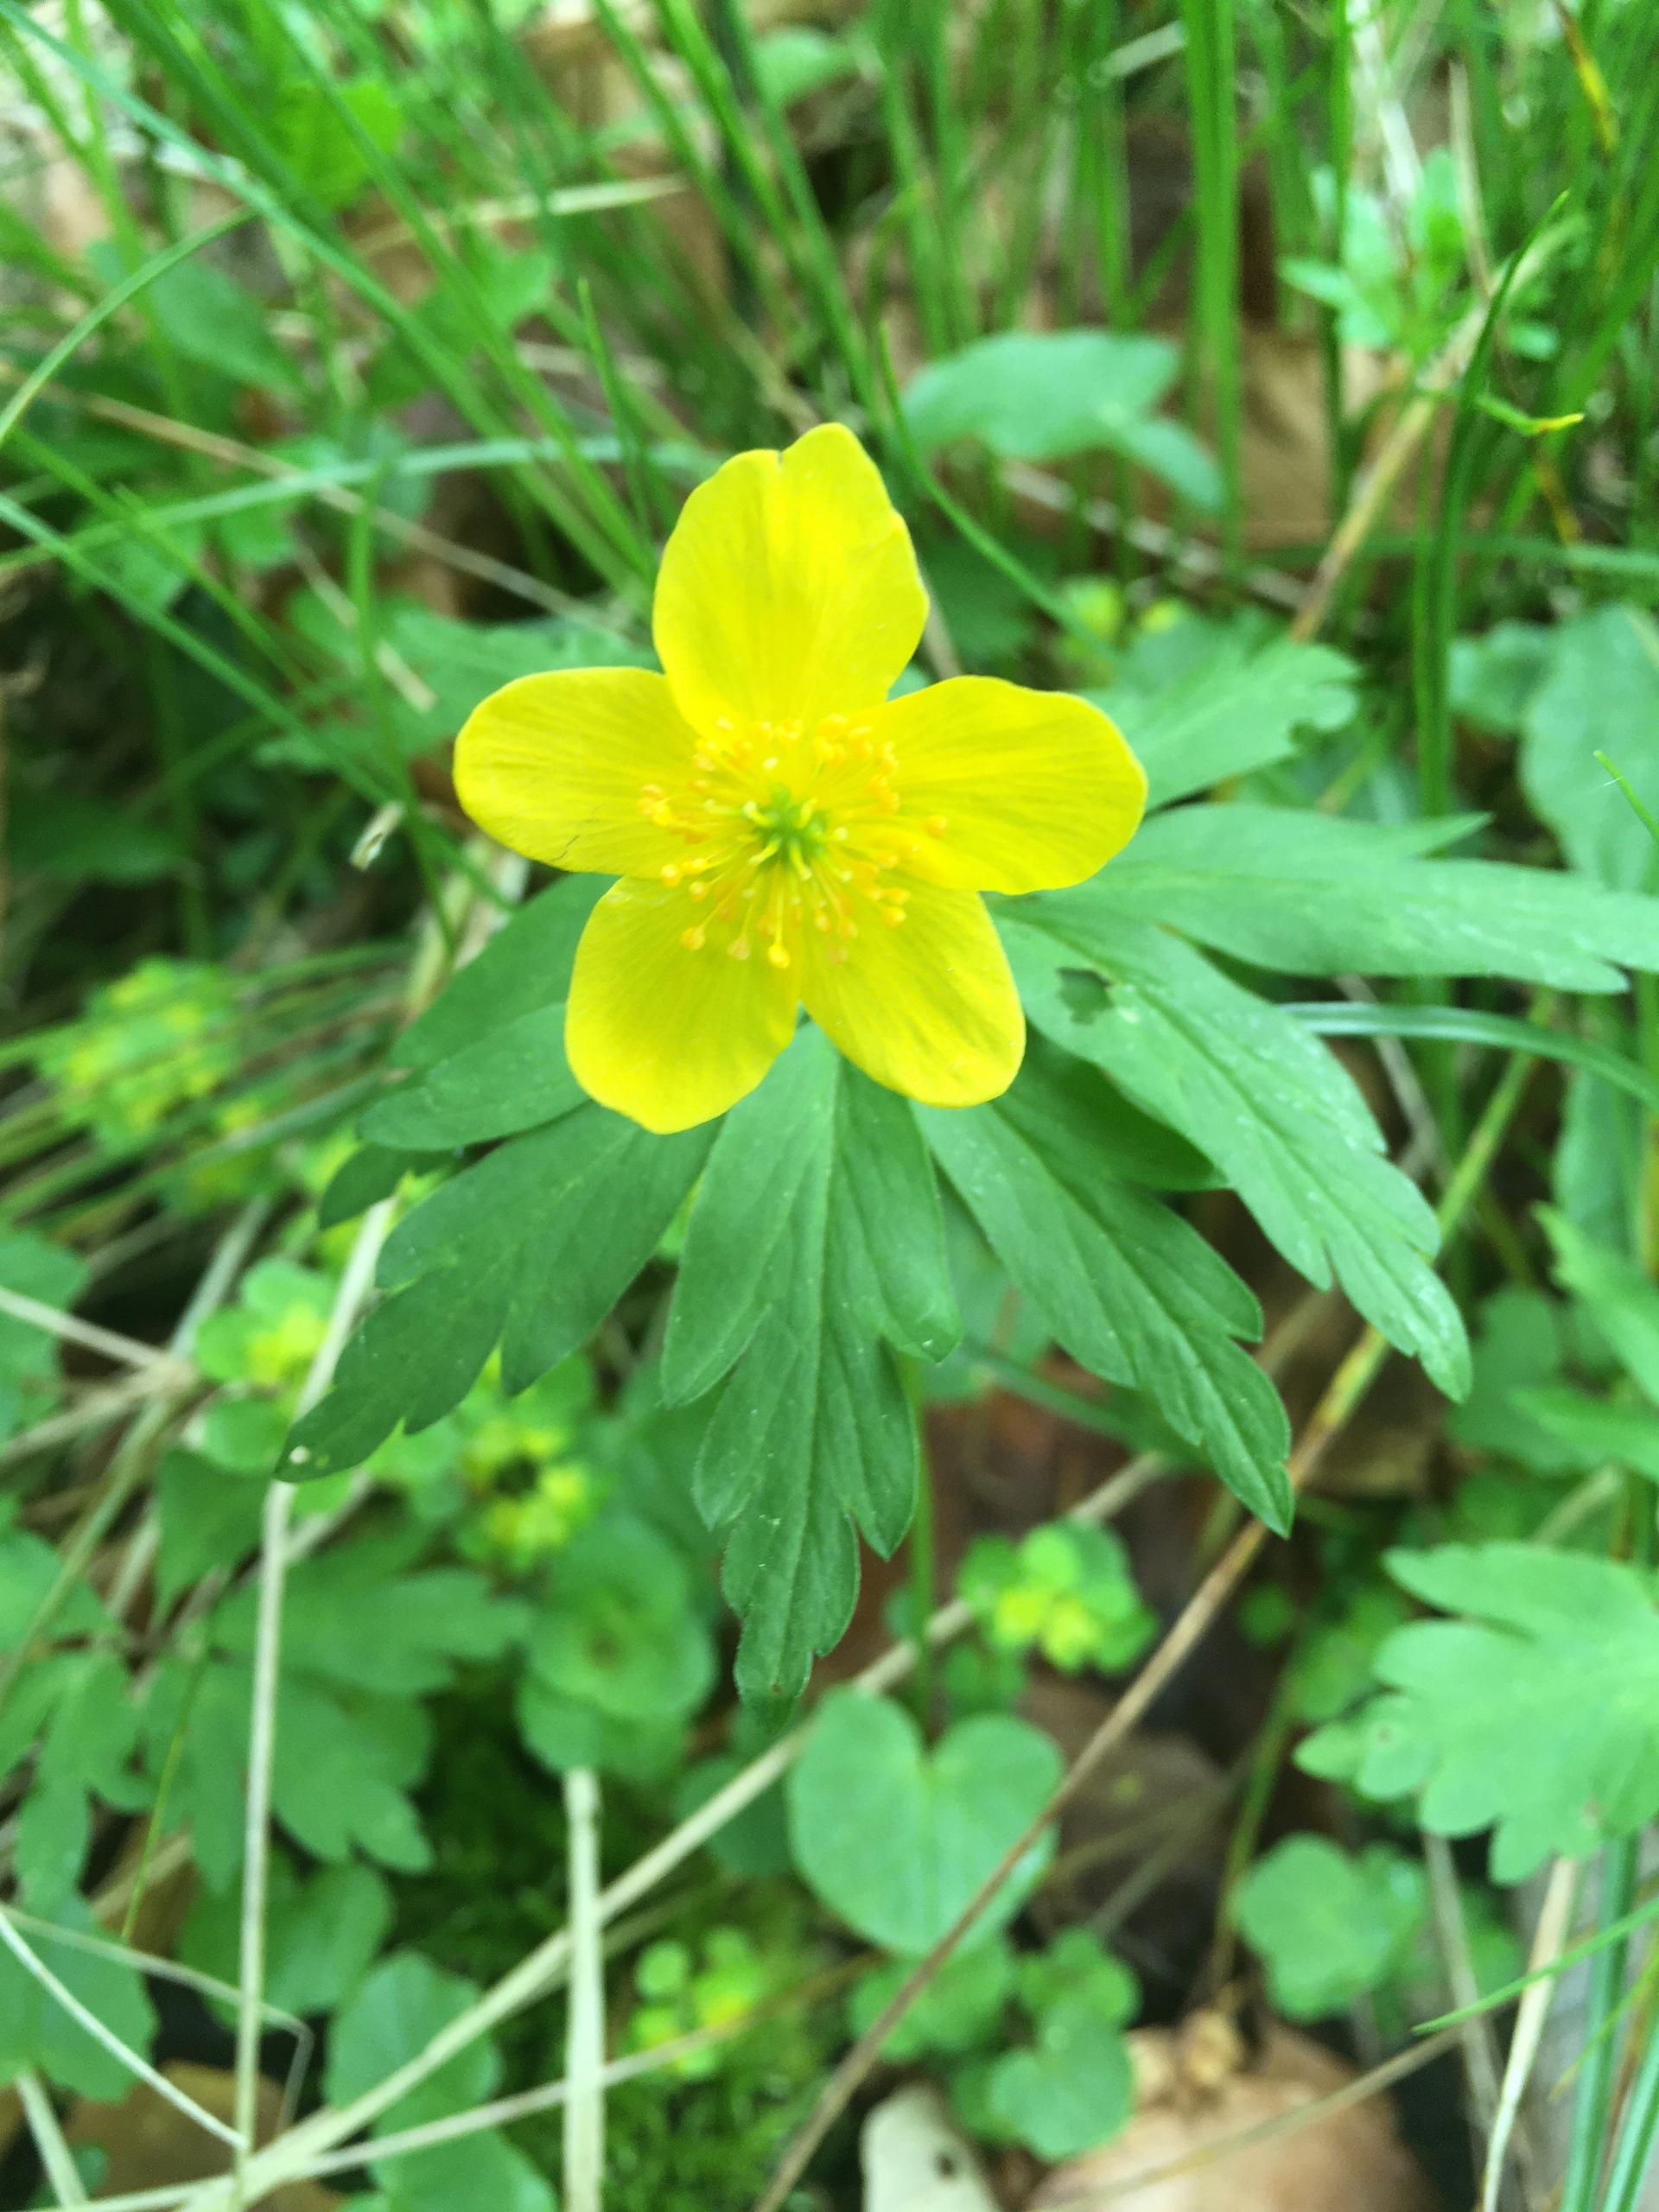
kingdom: Plantae
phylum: Tracheophyta
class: Magnoliopsida
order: Ranunculales
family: Ranunculaceae
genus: Anemone
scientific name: Anemone ranunculoides
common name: Gul anemone
